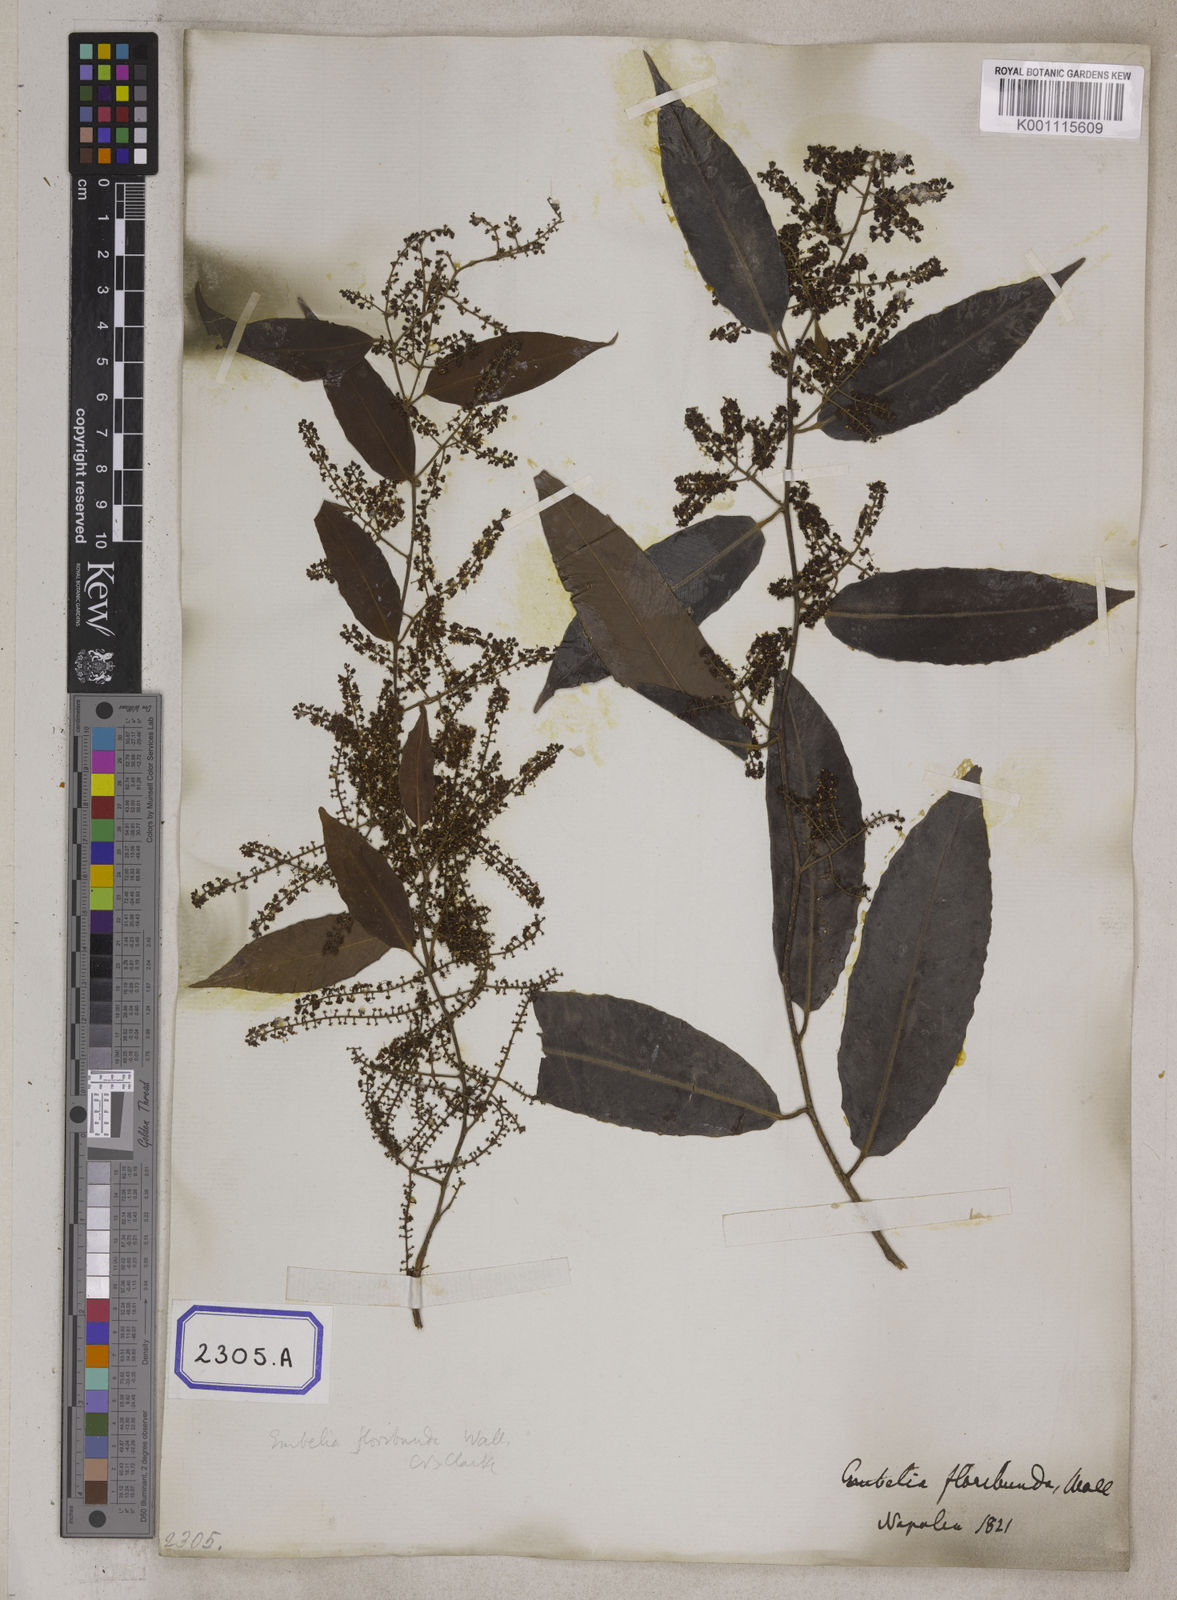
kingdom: Plantae
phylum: Tracheophyta
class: Magnoliopsida
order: Ericales
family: Primulaceae
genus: Embelia
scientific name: Embelia floribunda
